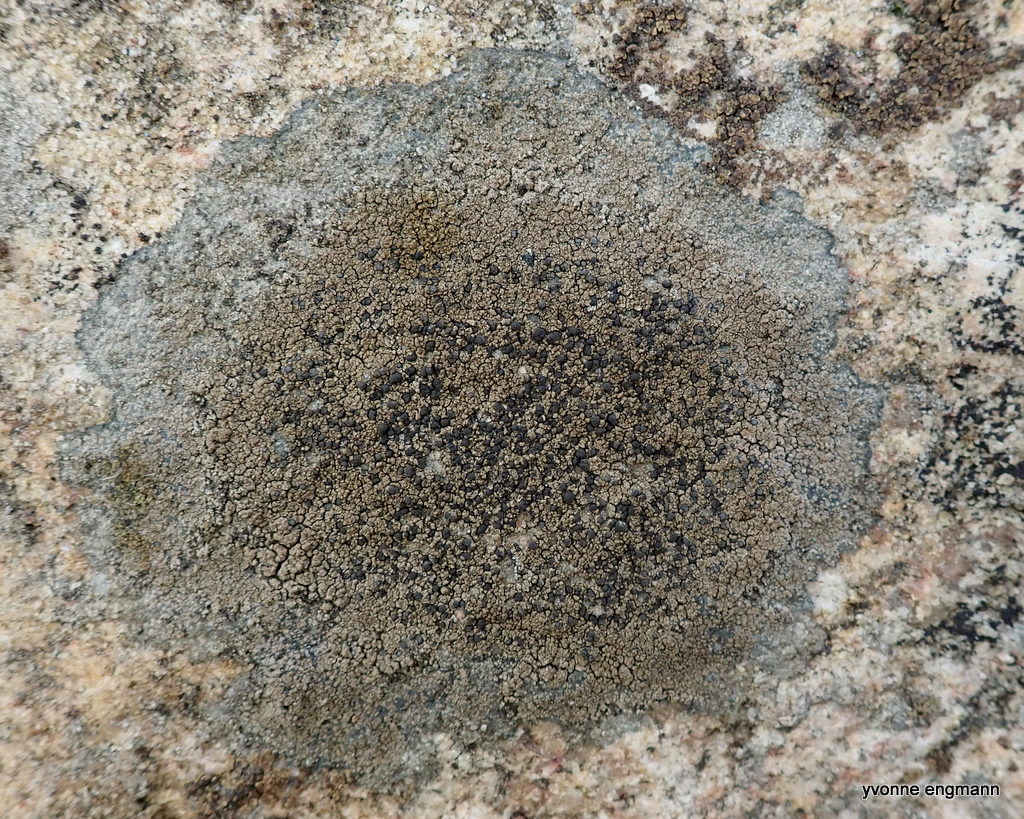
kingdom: Fungi
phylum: Ascomycota
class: Lecanoromycetes
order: Lecideales
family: Lecideaceae
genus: Lecidea
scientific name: Lecidea fuscoatra
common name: rudret skivelav
